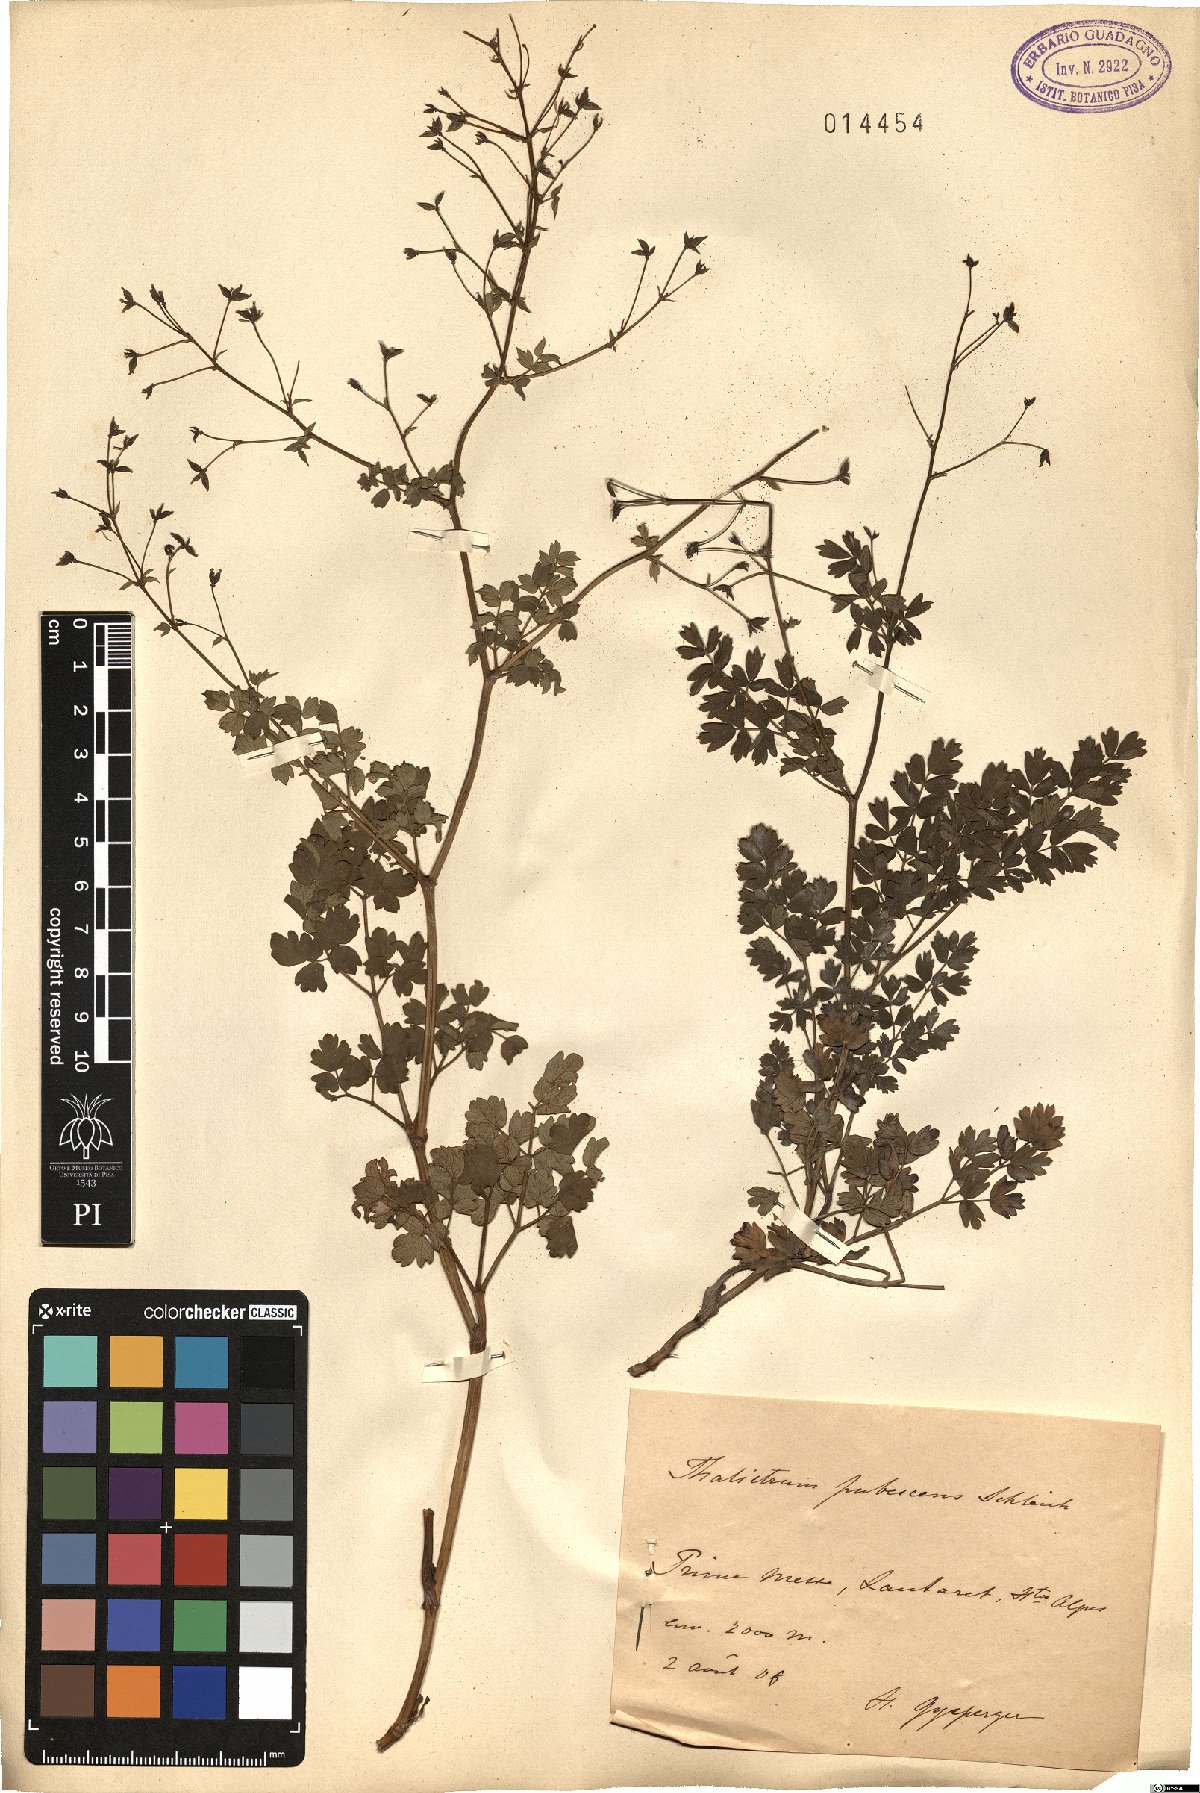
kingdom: Plantae
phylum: Tracheophyta
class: Magnoliopsida
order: Ranunculales
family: Ranunculaceae
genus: Thalictrum
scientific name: Thalictrum minus
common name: Lesser meadow-rue
